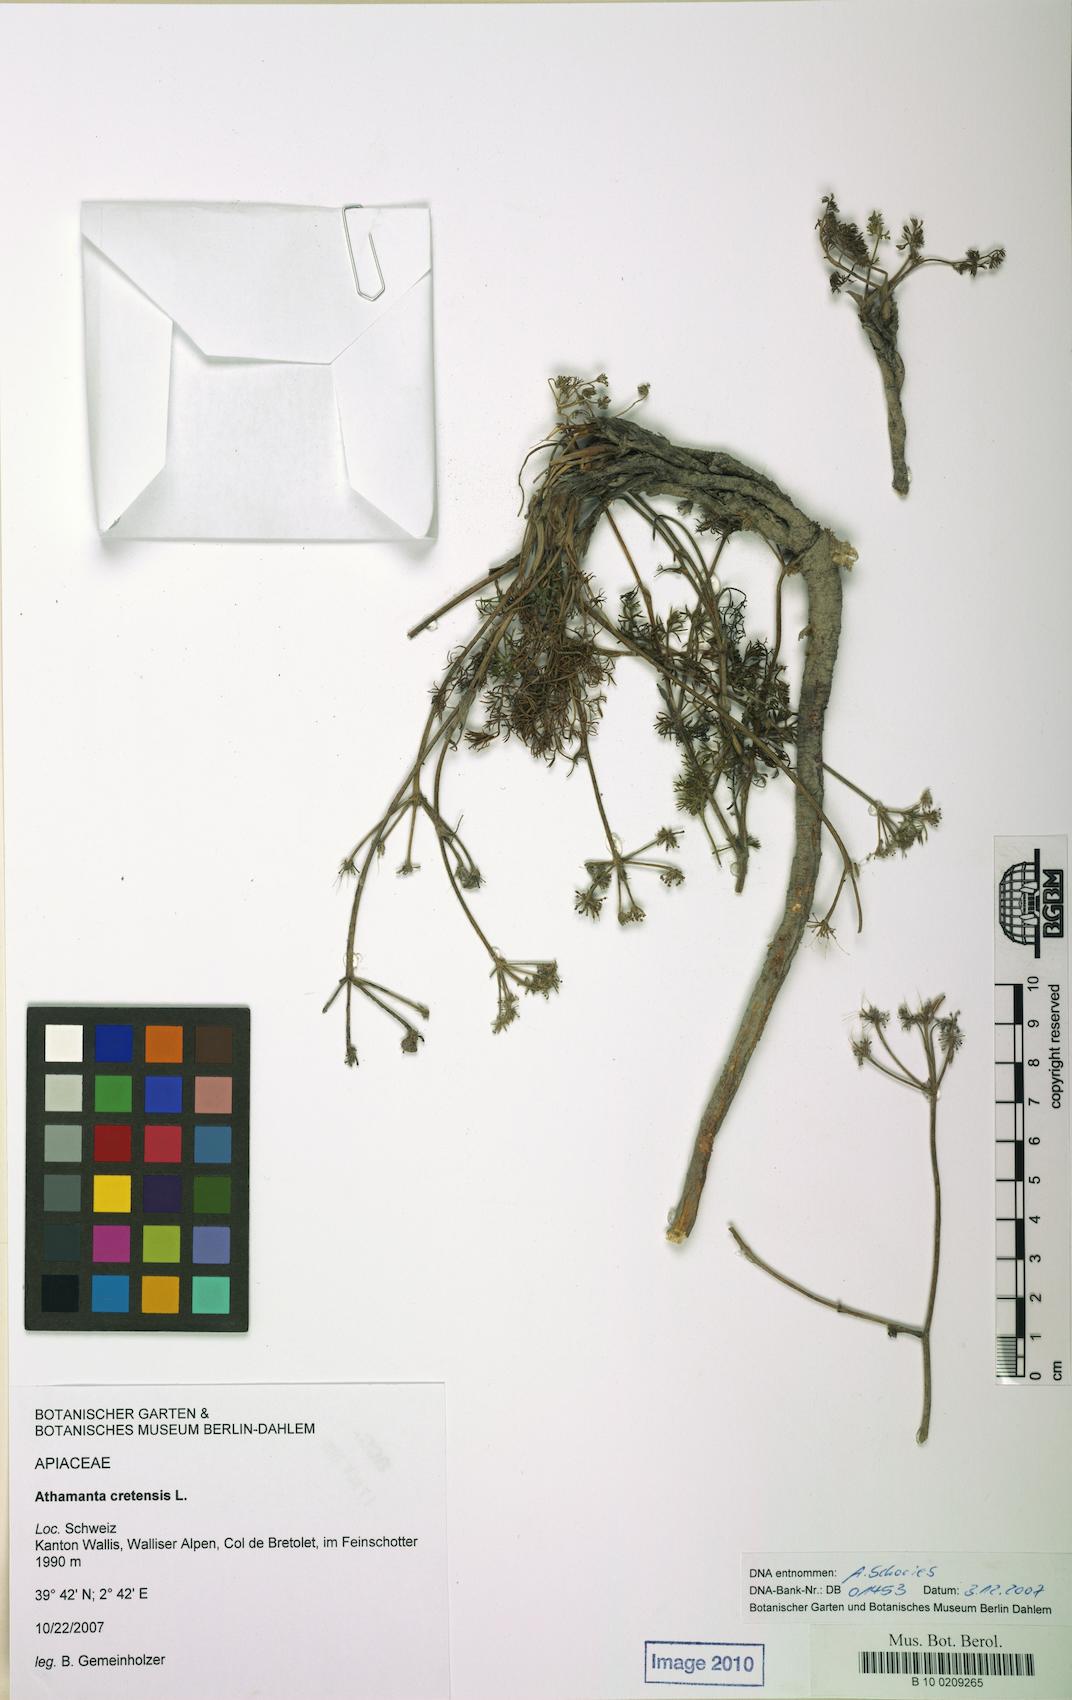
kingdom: Plantae
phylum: Tracheophyta
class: Magnoliopsida
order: Apiales
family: Apiaceae
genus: Athamanta
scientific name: Athamanta cretensis
